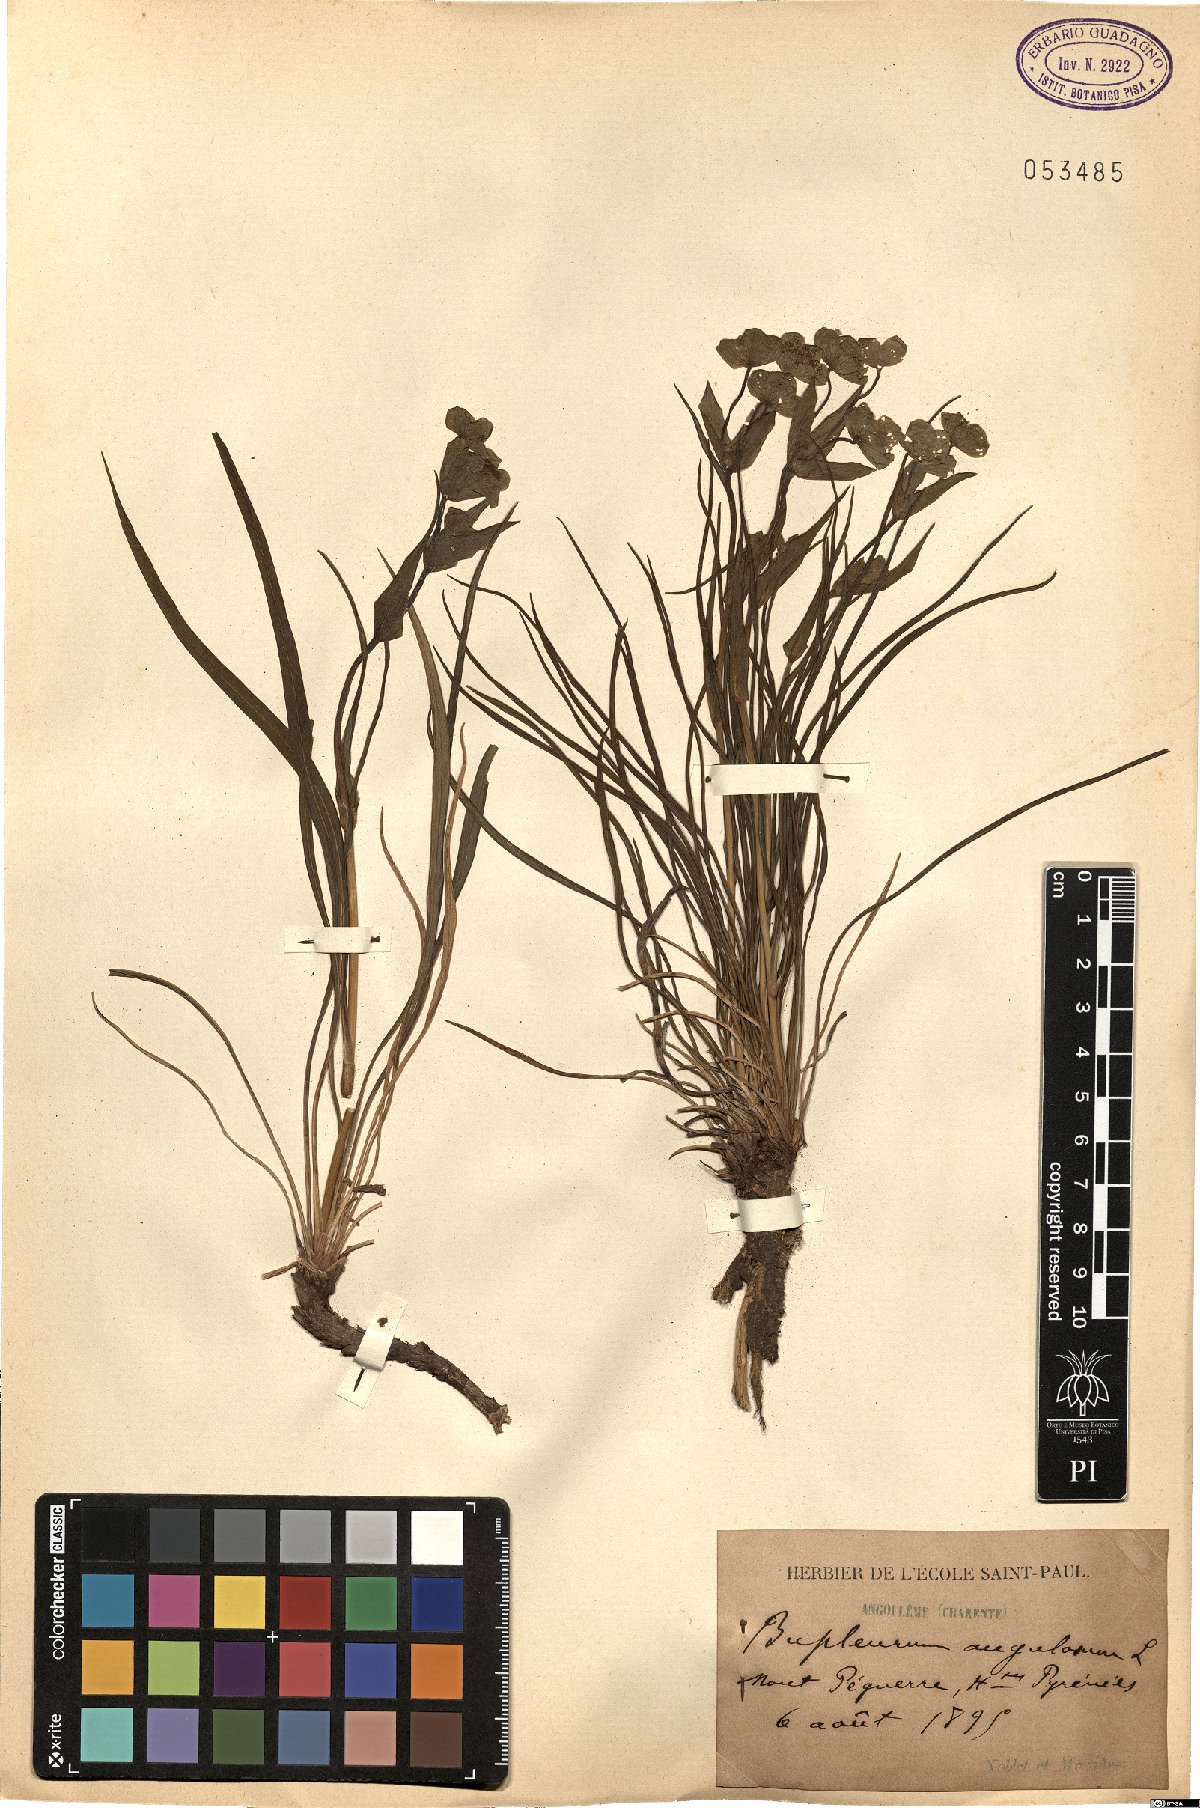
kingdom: Plantae
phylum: Tracheophyta
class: Magnoliopsida
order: Apiales
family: Apiaceae
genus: Bupleurum
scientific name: Bupleurum angulosum
